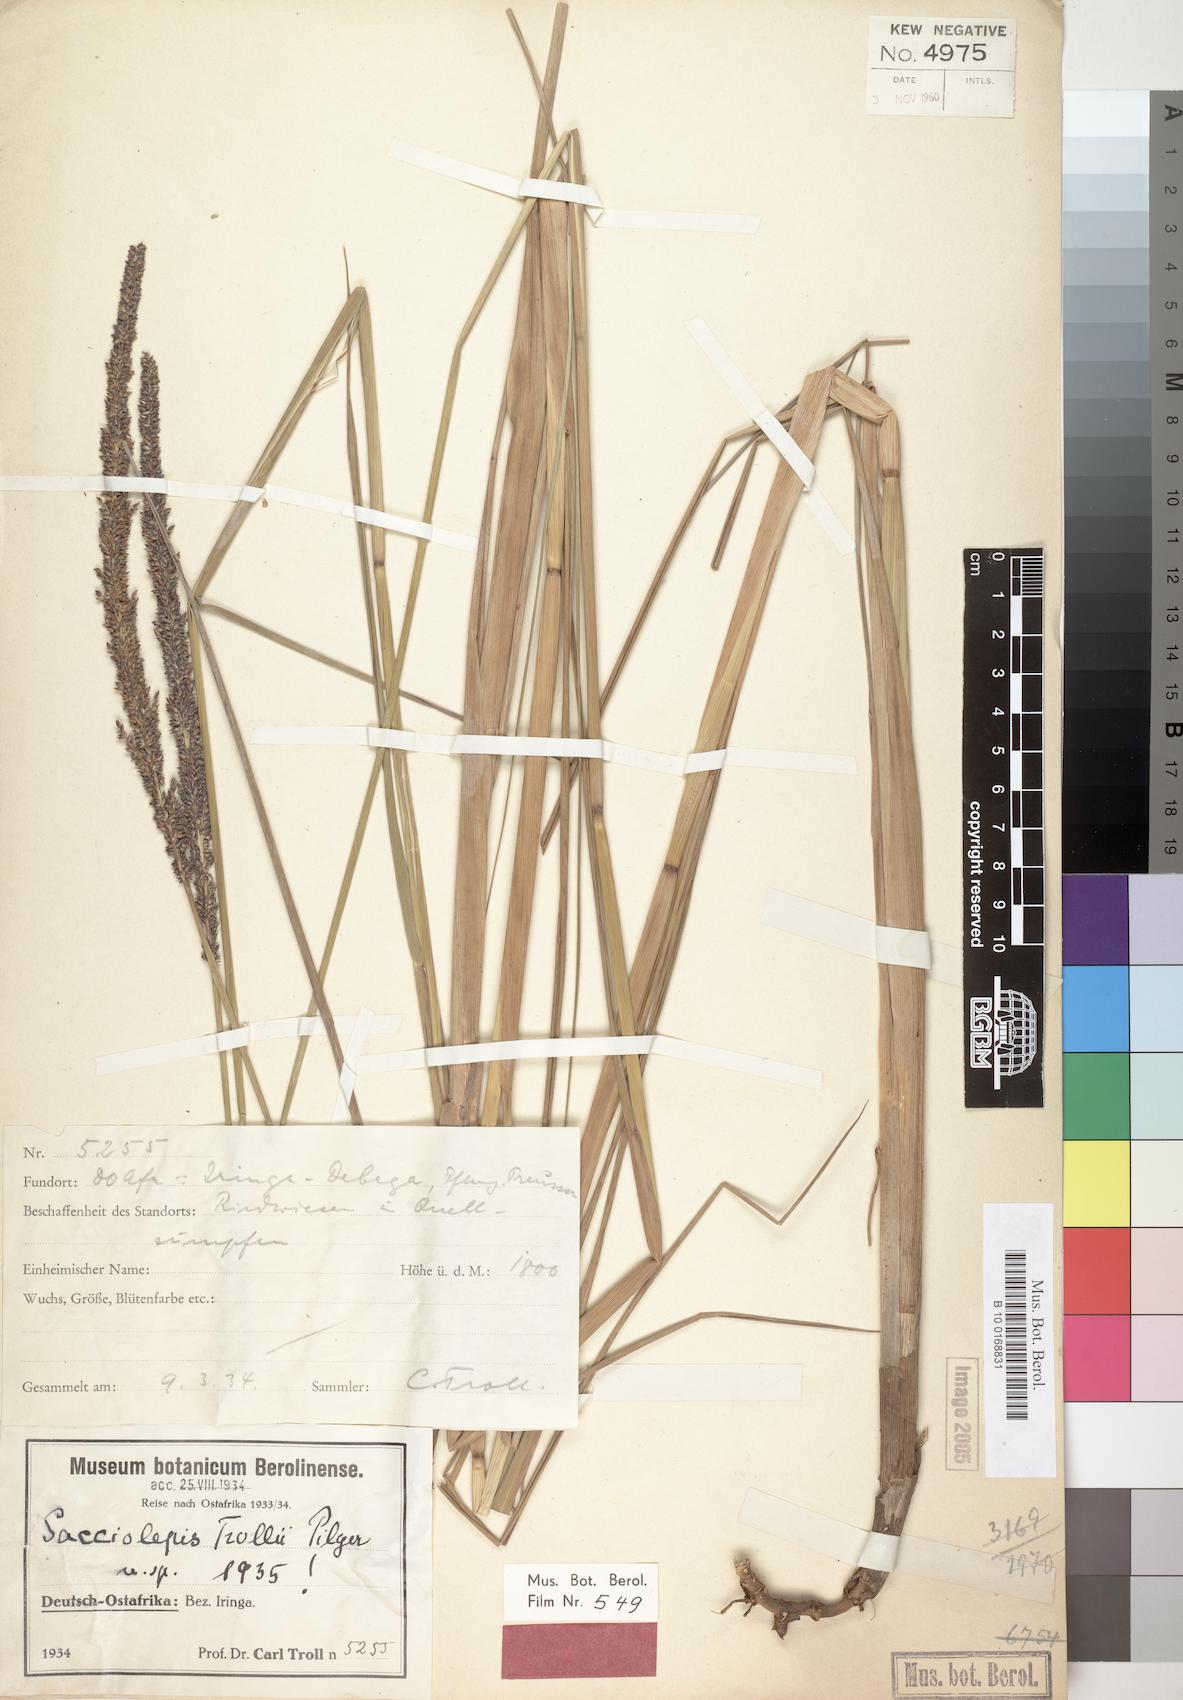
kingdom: Plantae
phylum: Tracheophyta
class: Liliopsida
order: Poales
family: Poaceae
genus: Sacciolepis
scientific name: Sacciolepis typhura
